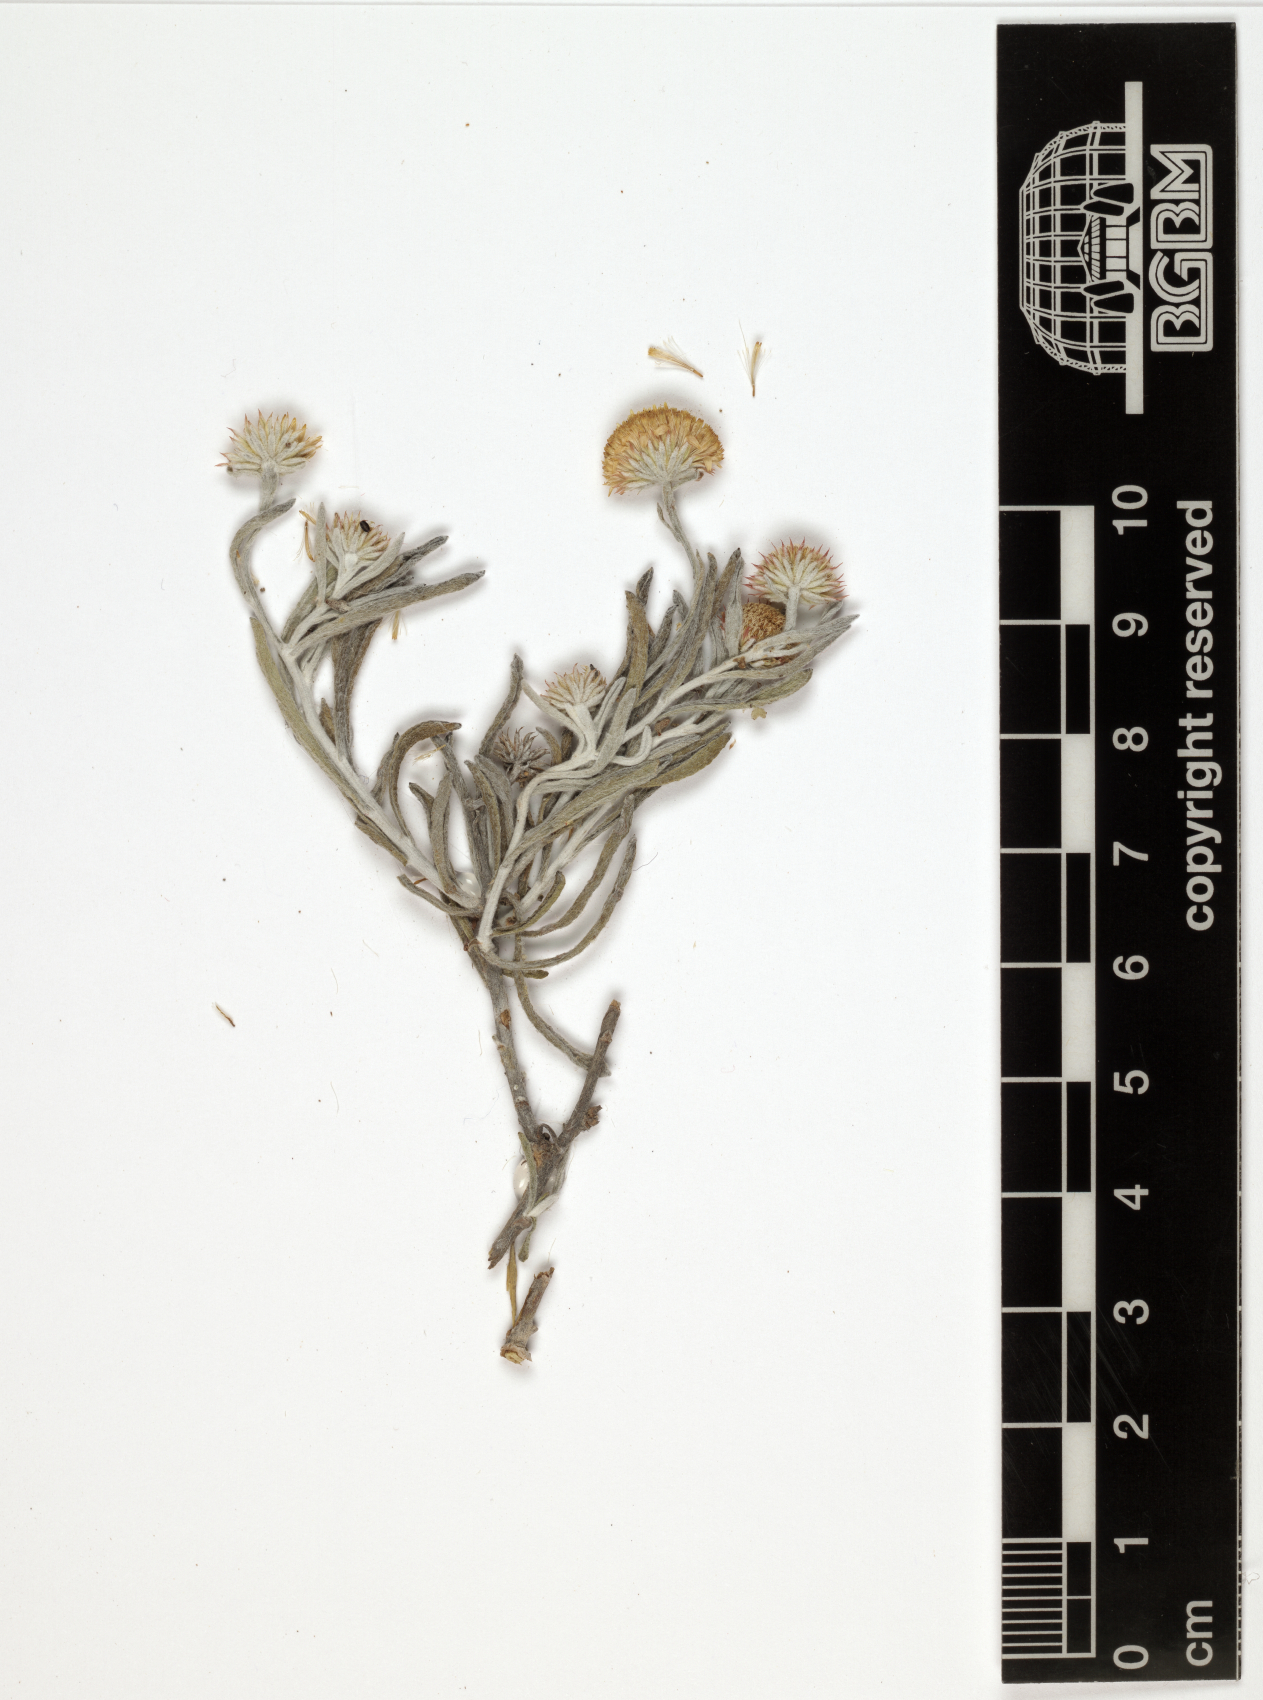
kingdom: Plantae
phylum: Tracheophyta
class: Magnoliopsida
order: Asterales
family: Asteraceae
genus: Pulicaria
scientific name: Pulicaria nobilis
